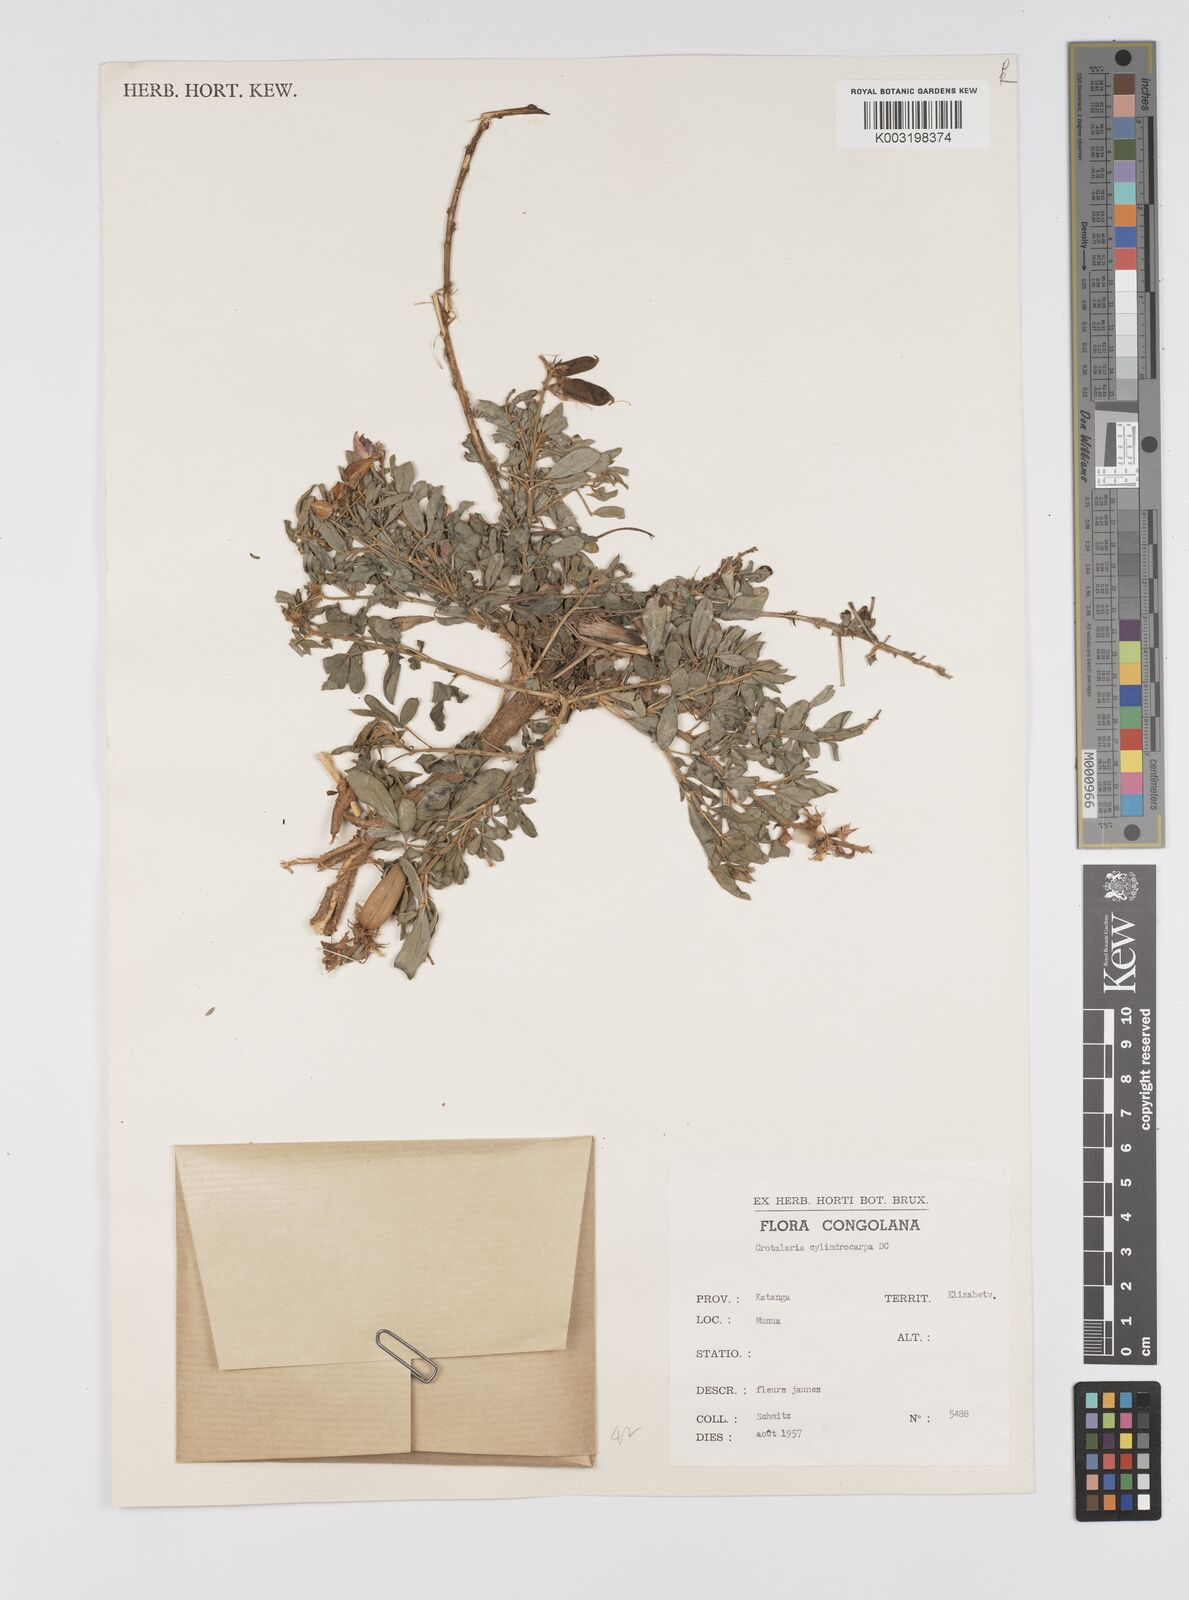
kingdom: Plantae
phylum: Tracheophyta
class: Magnoliopsida
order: Fabales
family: Fabaceae
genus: Crotalaria
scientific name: Crotalaria cylindrocarpa
